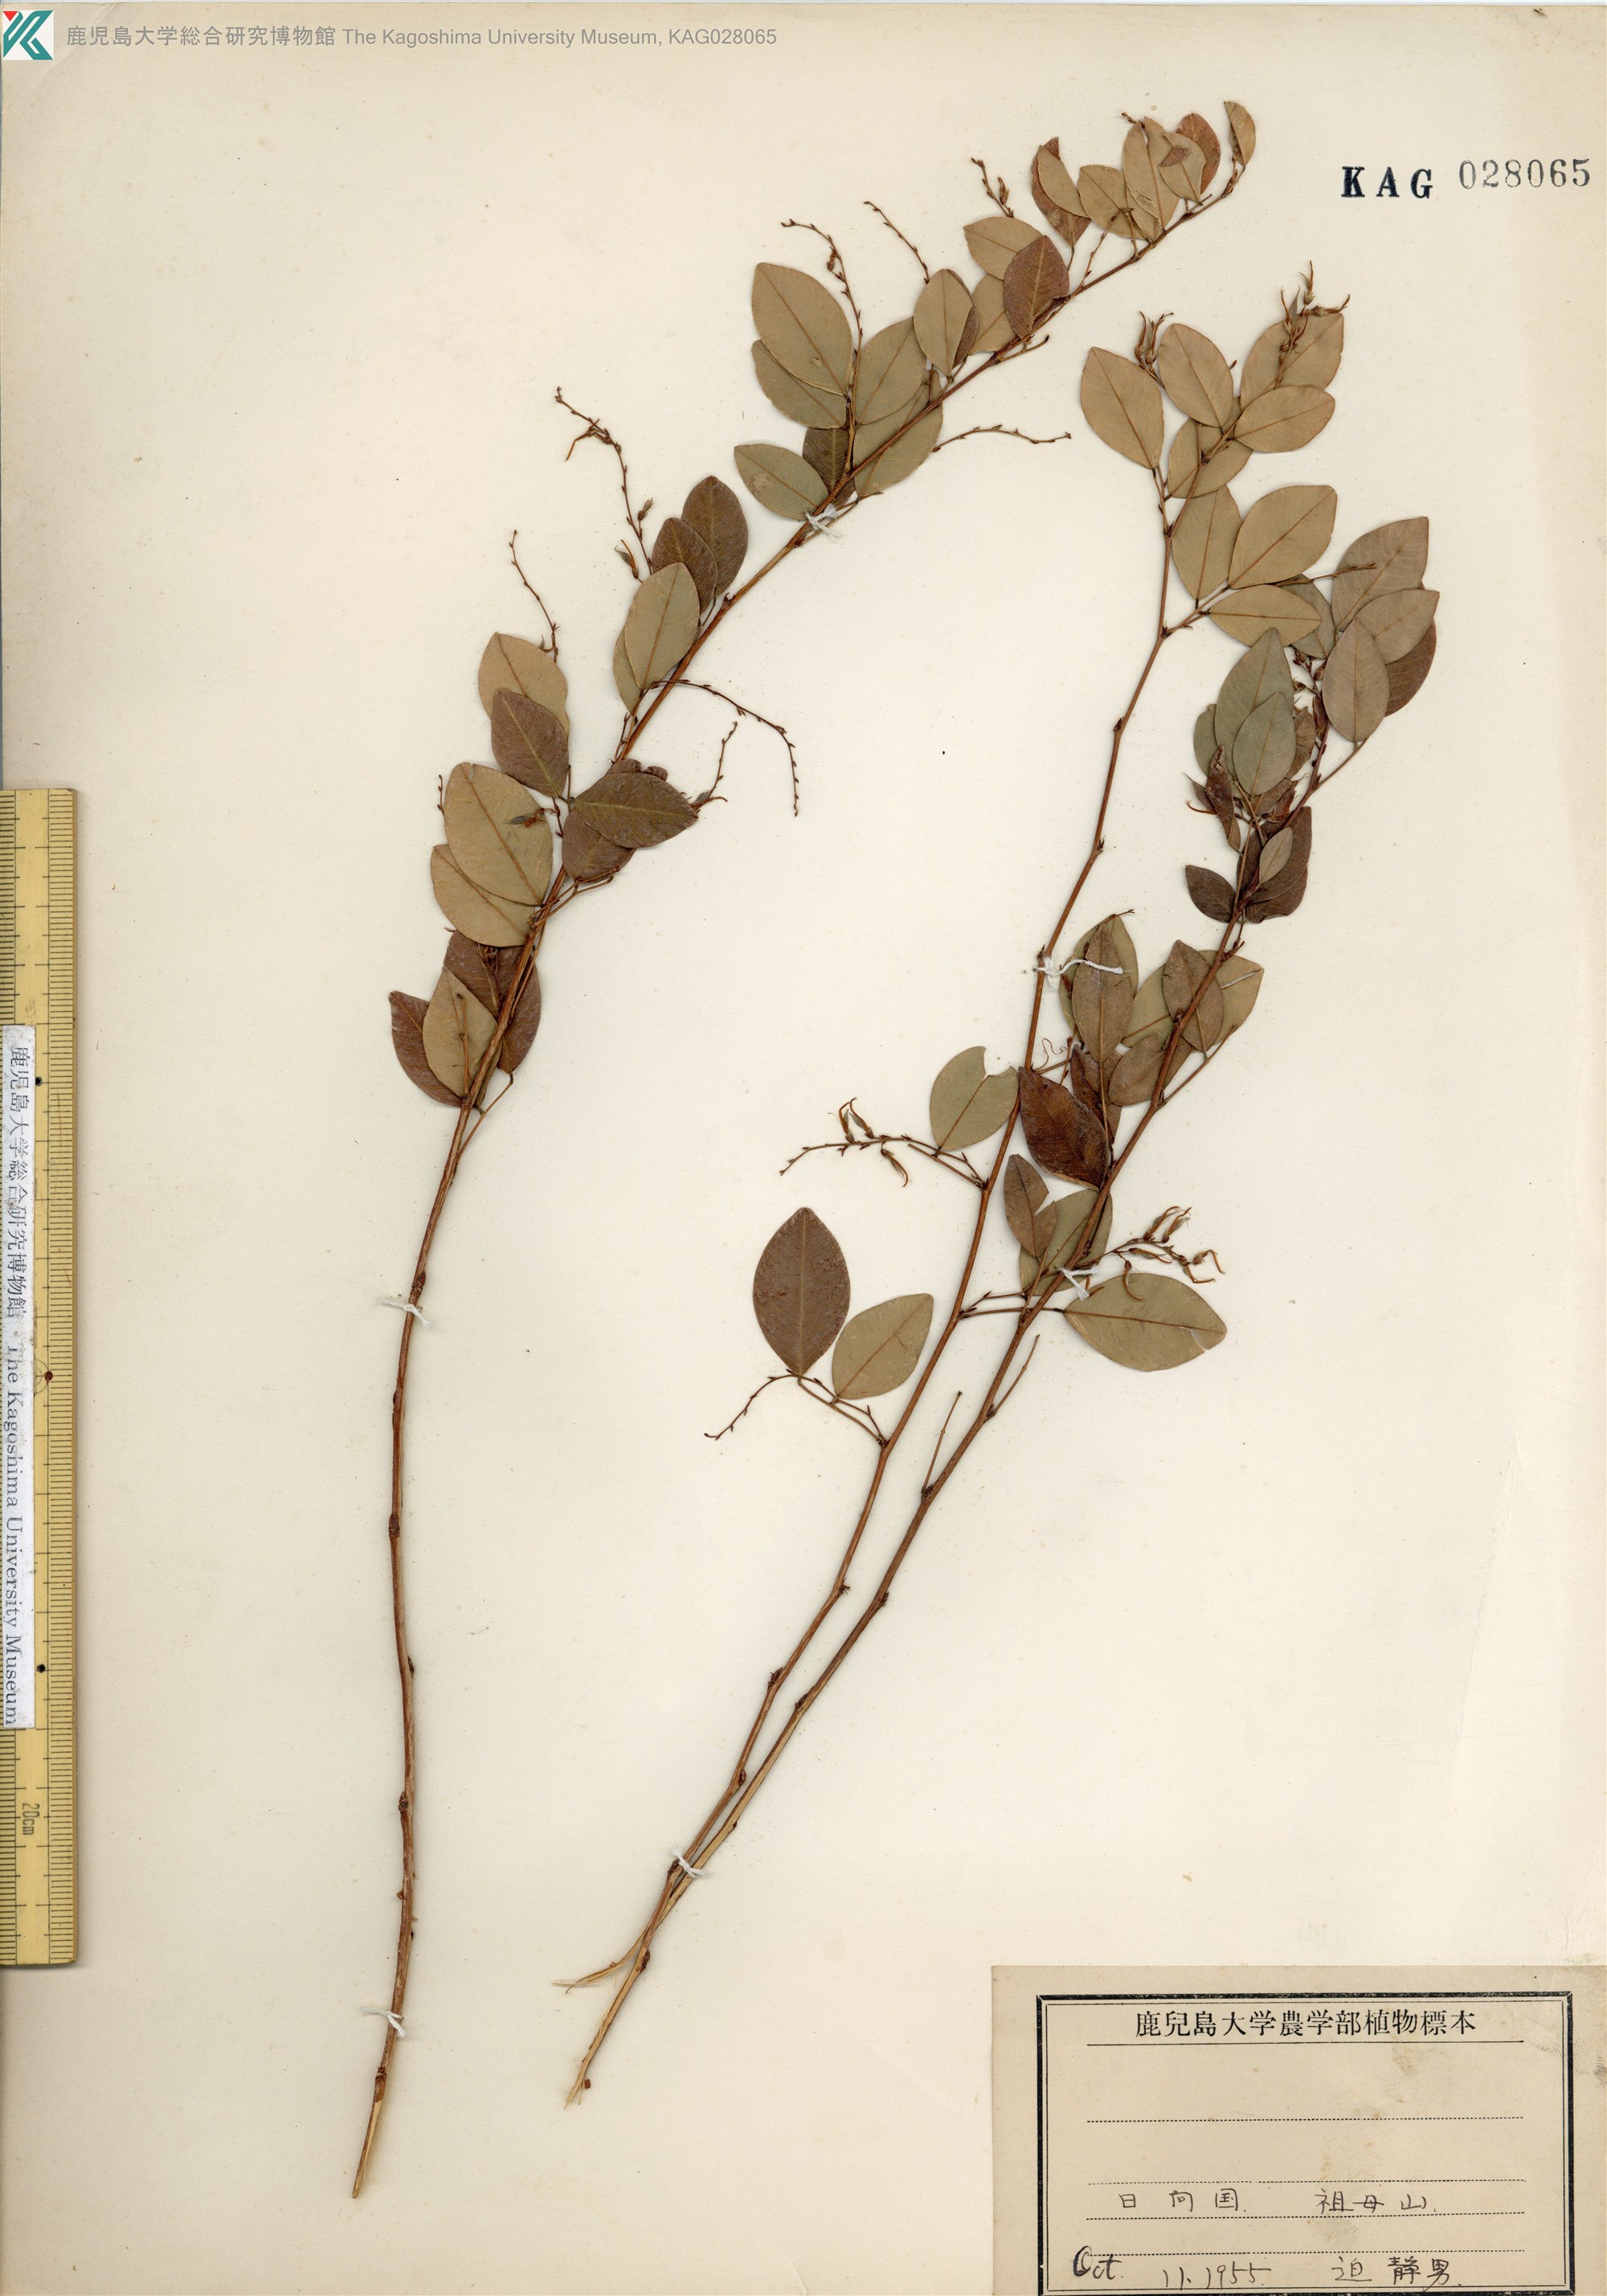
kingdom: Plantae
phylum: Tracheophyta
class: Magnoliopsida
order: Fabales
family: Fabaceae
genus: Lespedeza
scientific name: Lespedeza buergeri
